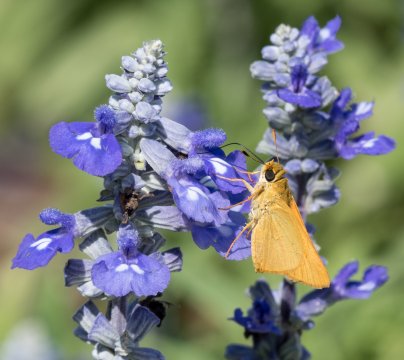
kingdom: Animalia
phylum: Arthropoda
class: Insecta
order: Lepidoptera
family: Hesperiidae
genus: Hesperia
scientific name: Hesperia ottoe
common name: Ottoe Skipper
